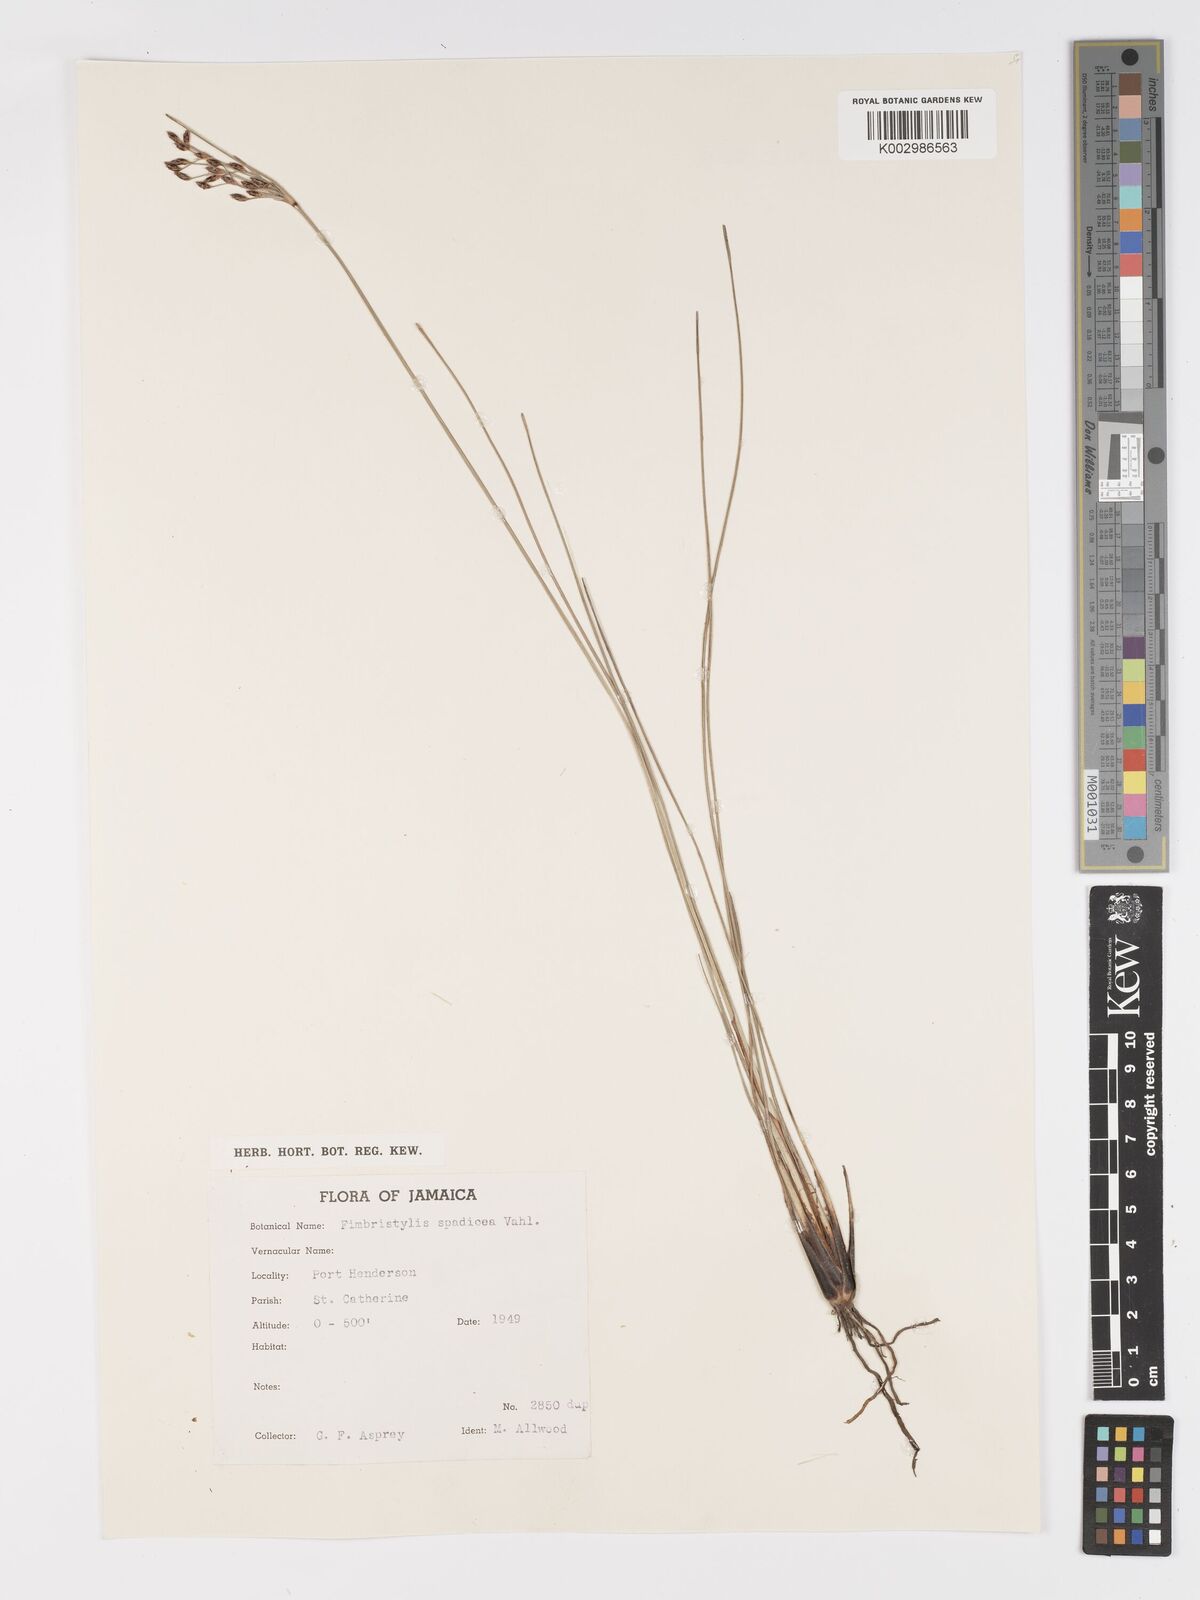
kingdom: Plantae
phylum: Tracheophyta
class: Liliopsida
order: Poales
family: Cyperaceae
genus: Fimbristylis
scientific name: Fimbristylis spadicea
